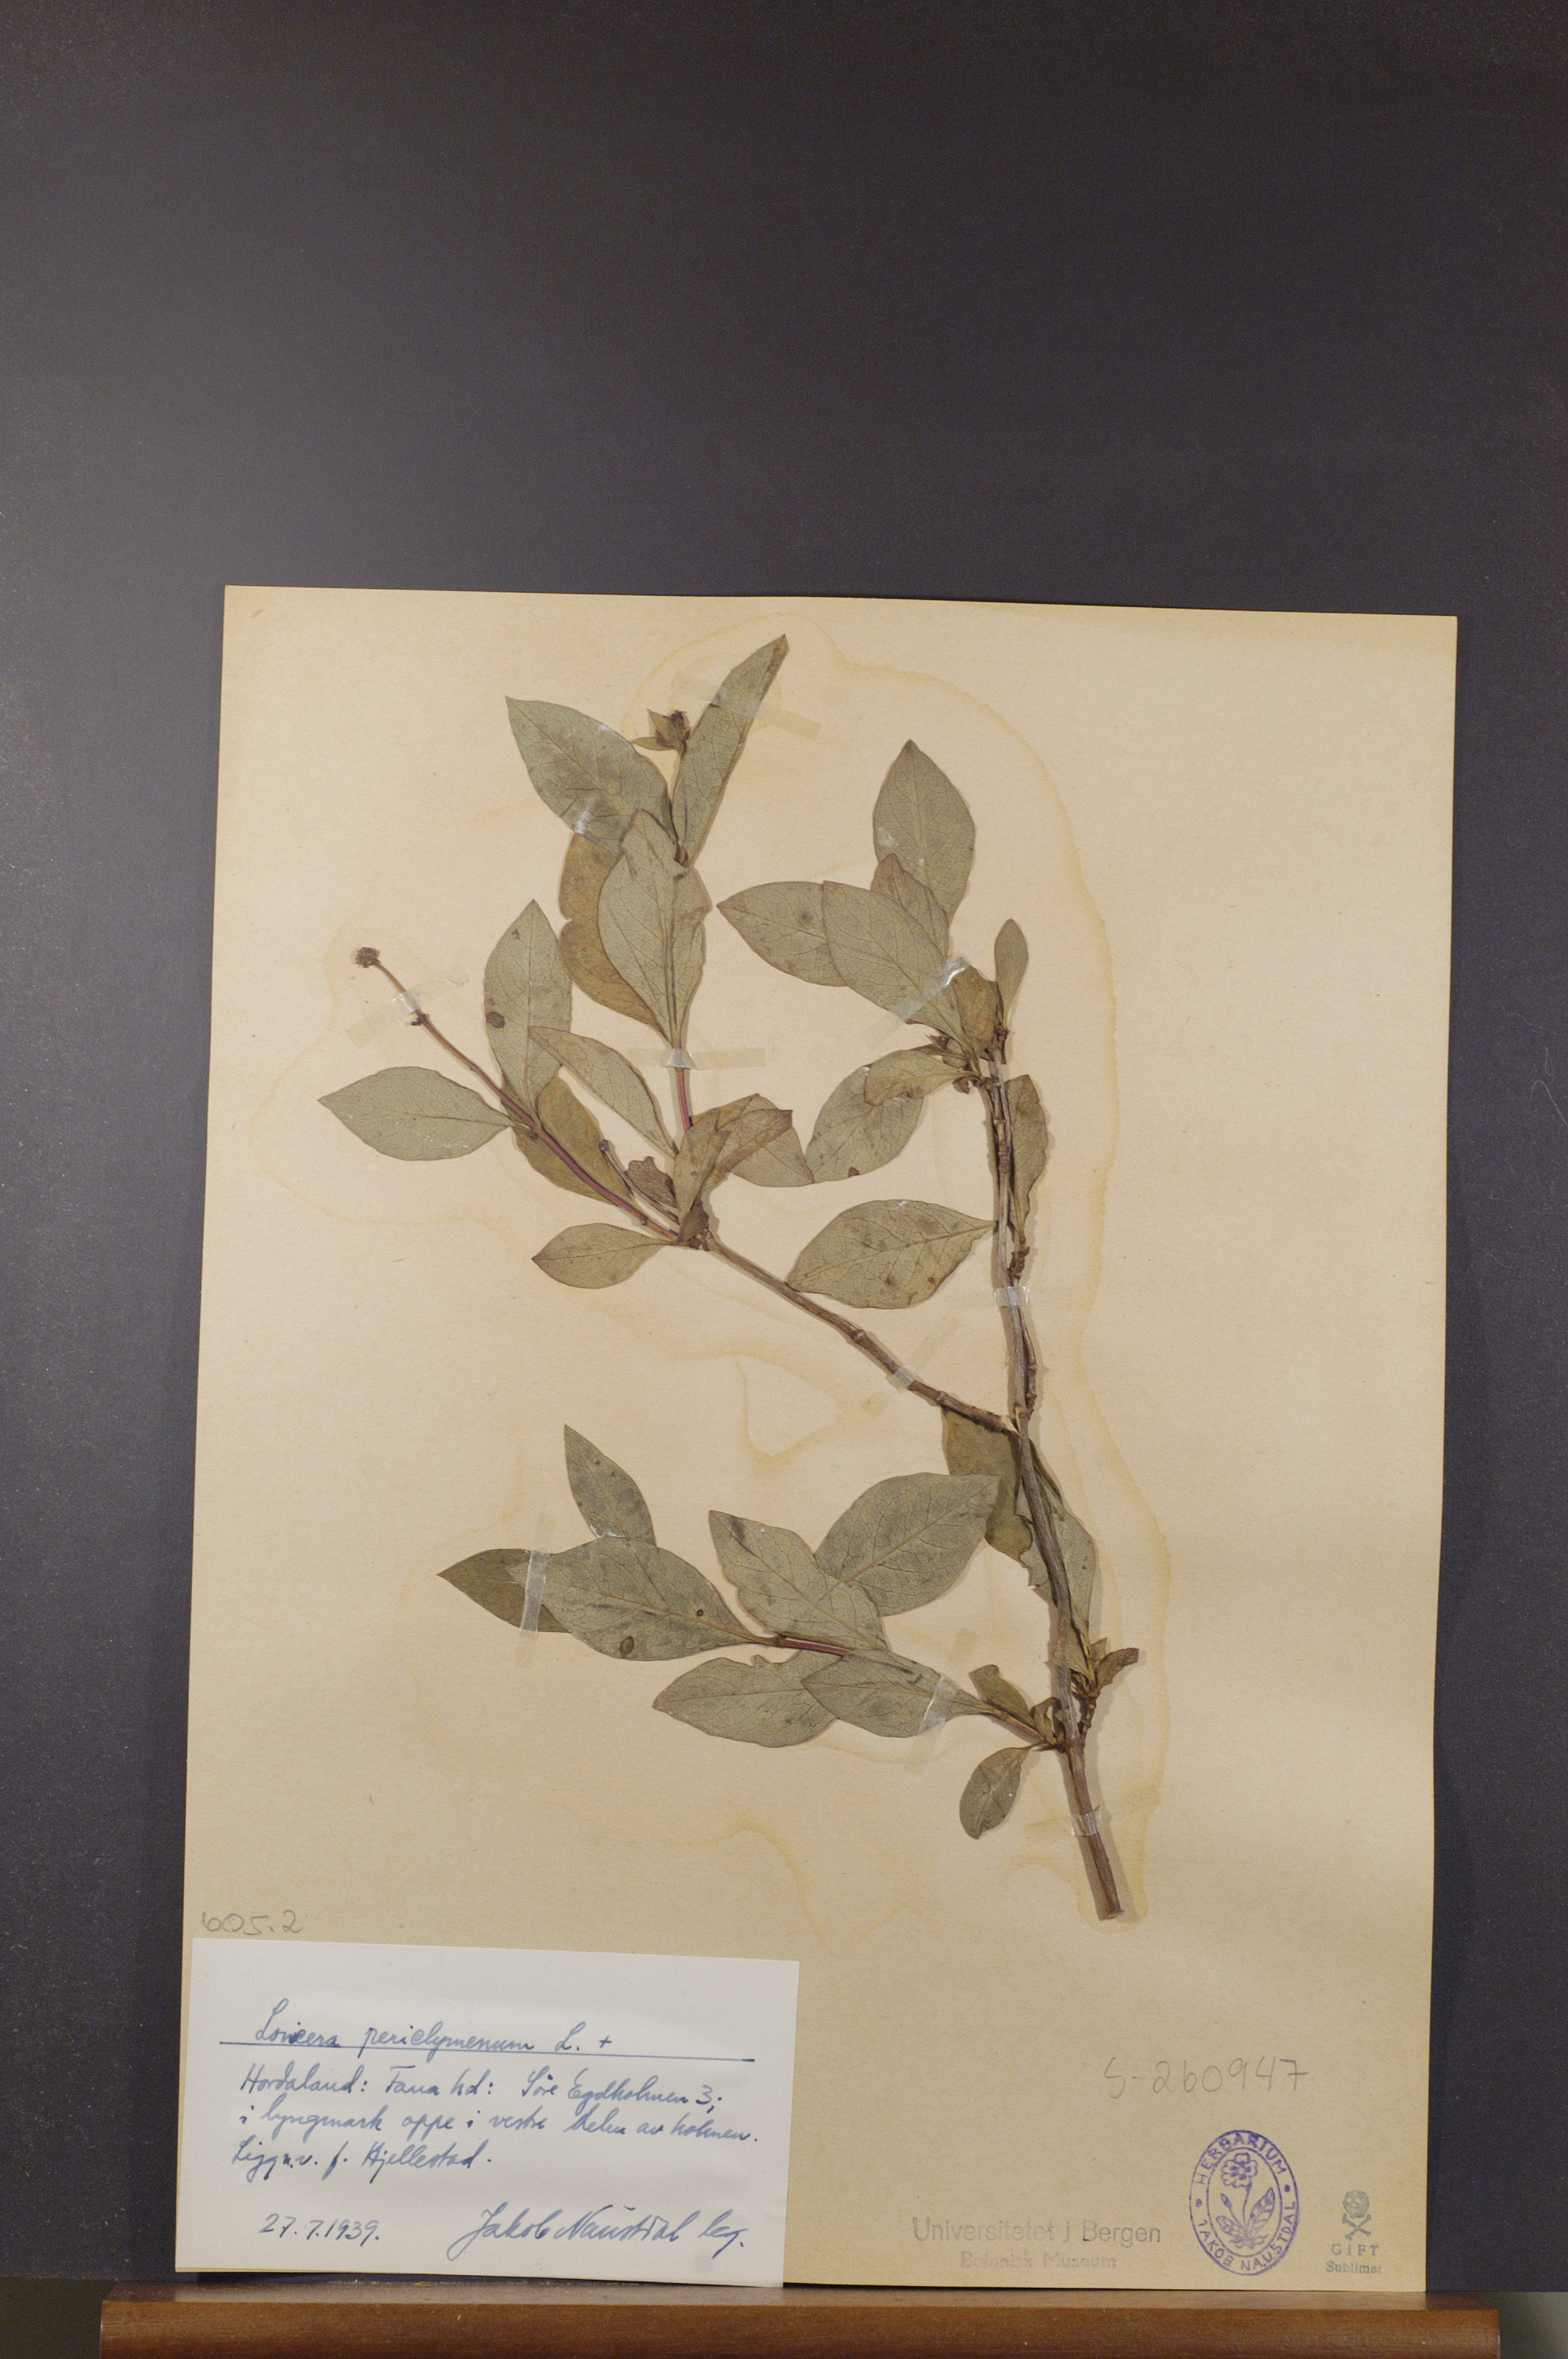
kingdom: Plantae
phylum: Tracheophyta
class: Magnoliopsida
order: Dipsacales
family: Caprifoliaceae
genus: Lonicera
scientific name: Lonicera periclymenum
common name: European honeysuckle
